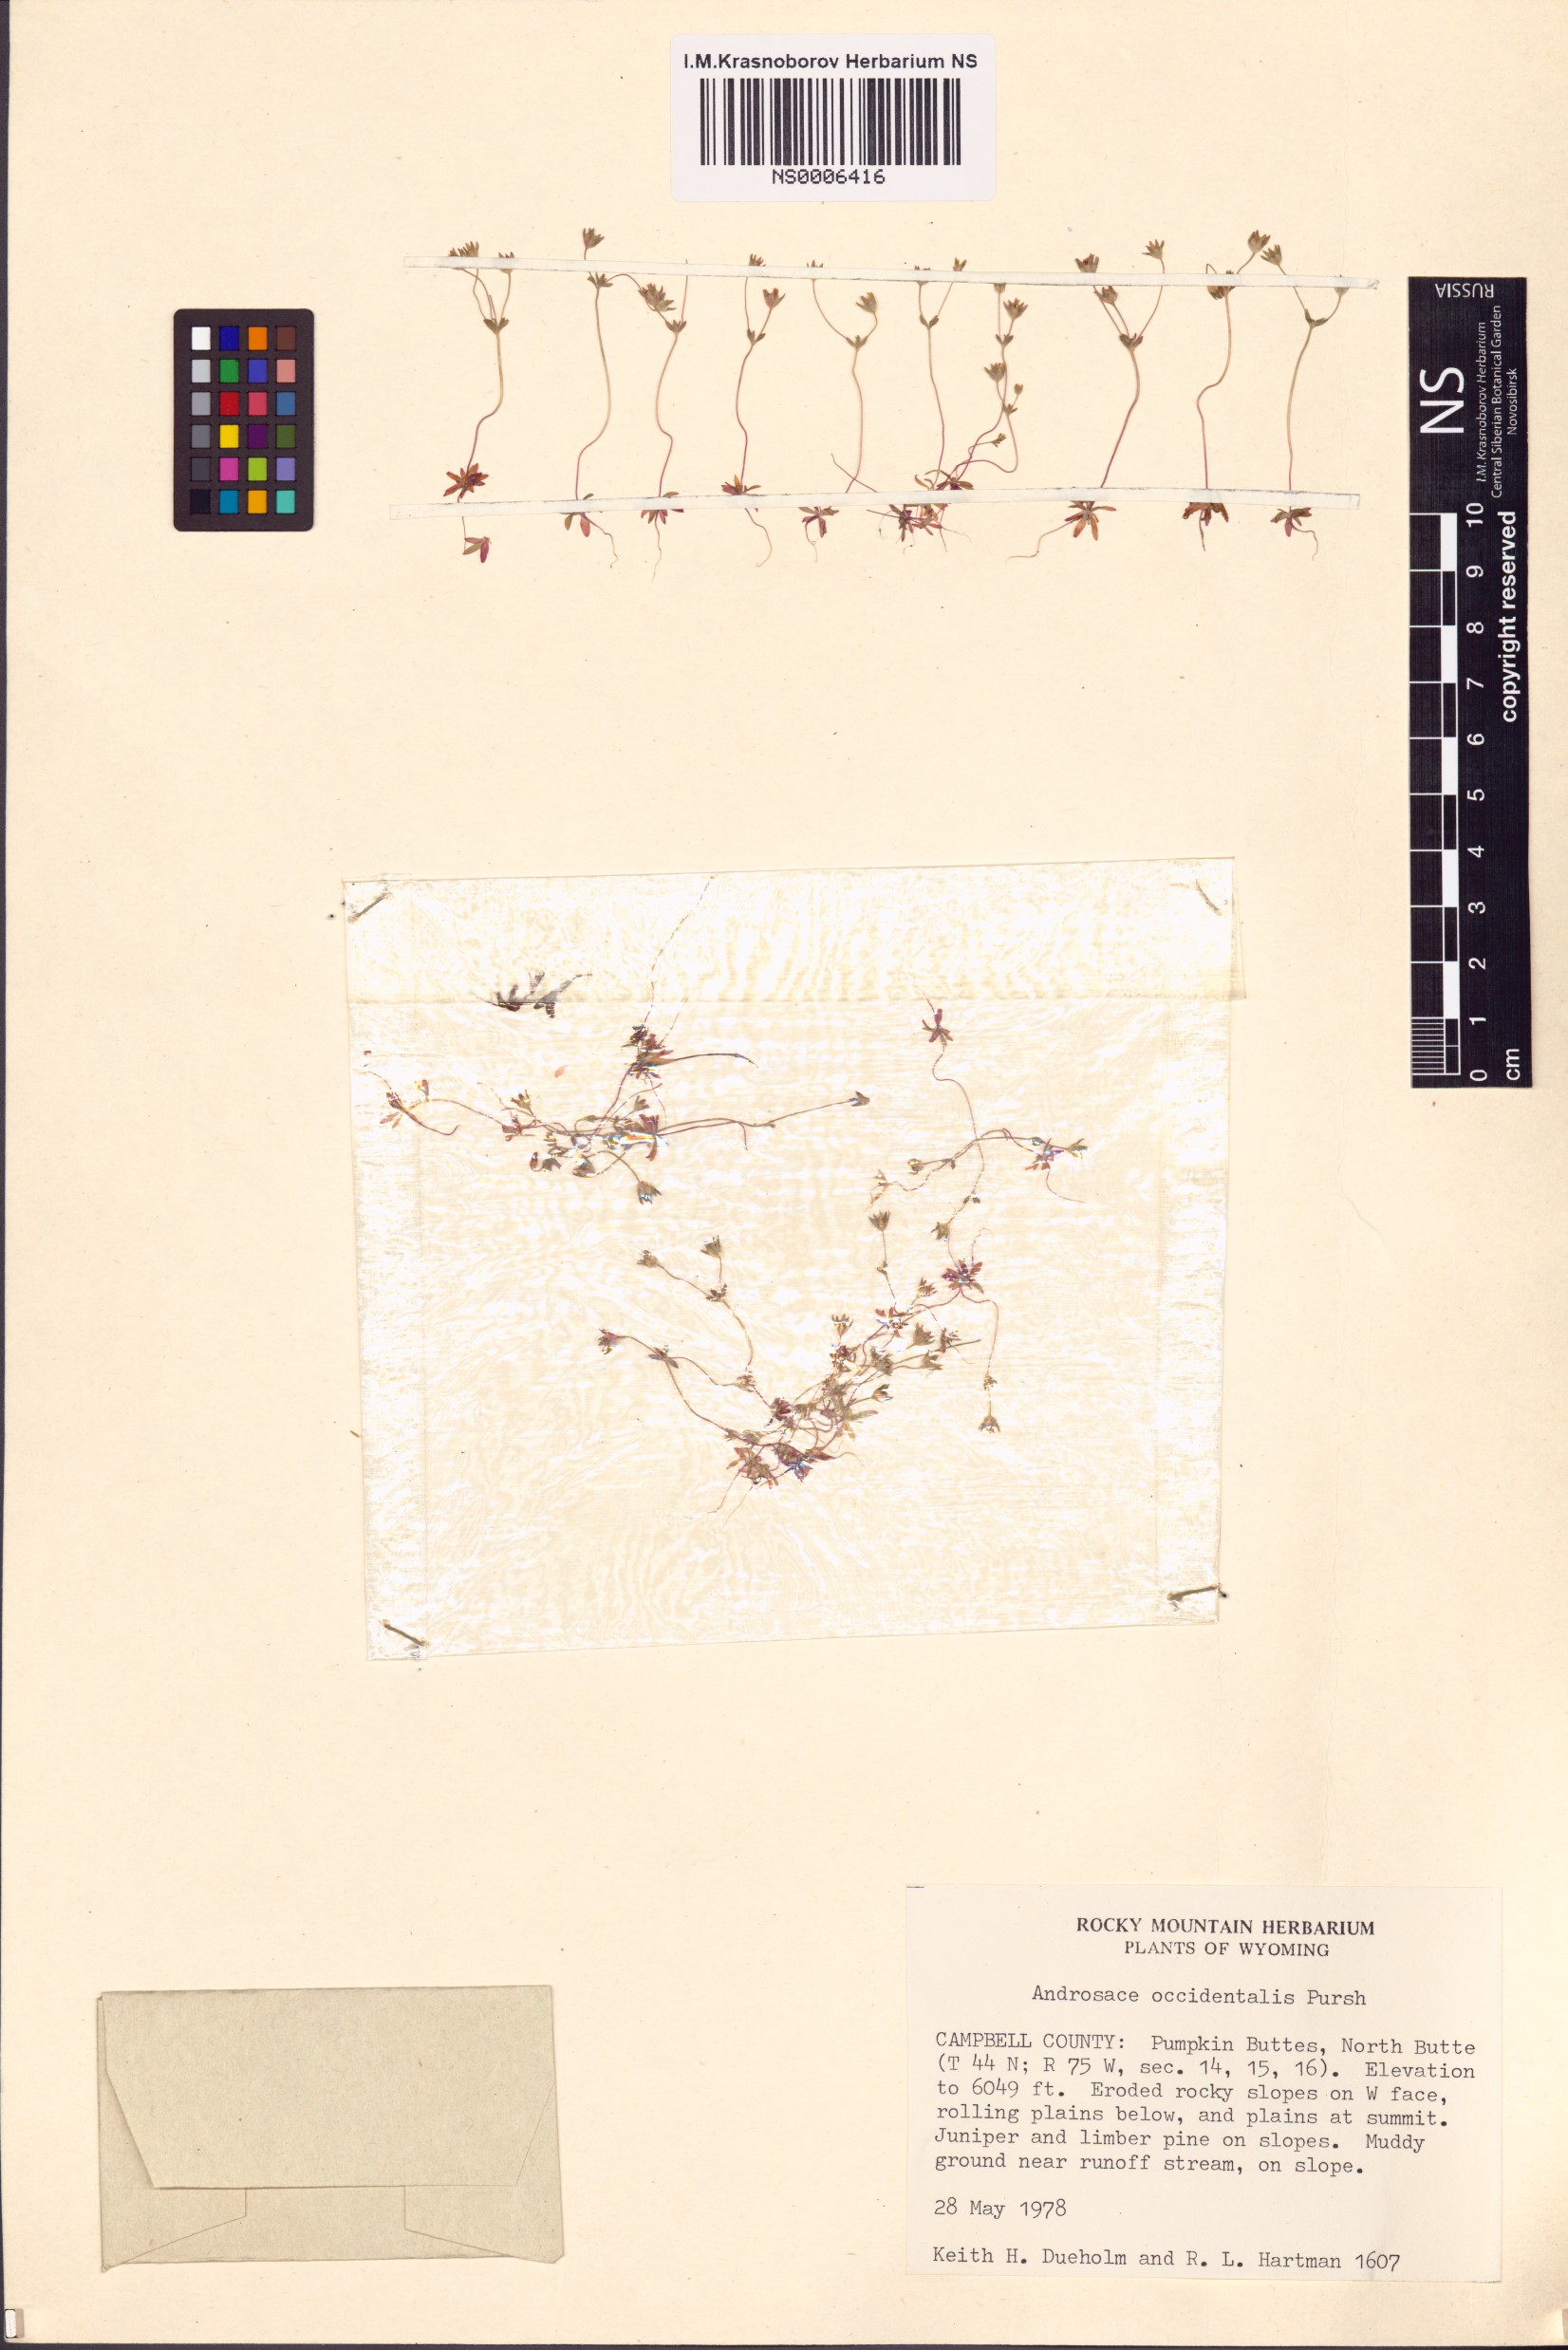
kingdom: Plantae
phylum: Tracheophyta
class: Magnoliopsida
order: Ericales
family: Primulaceae
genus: Androsace
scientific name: Androsace occidentalis
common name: West rock-jasmine
